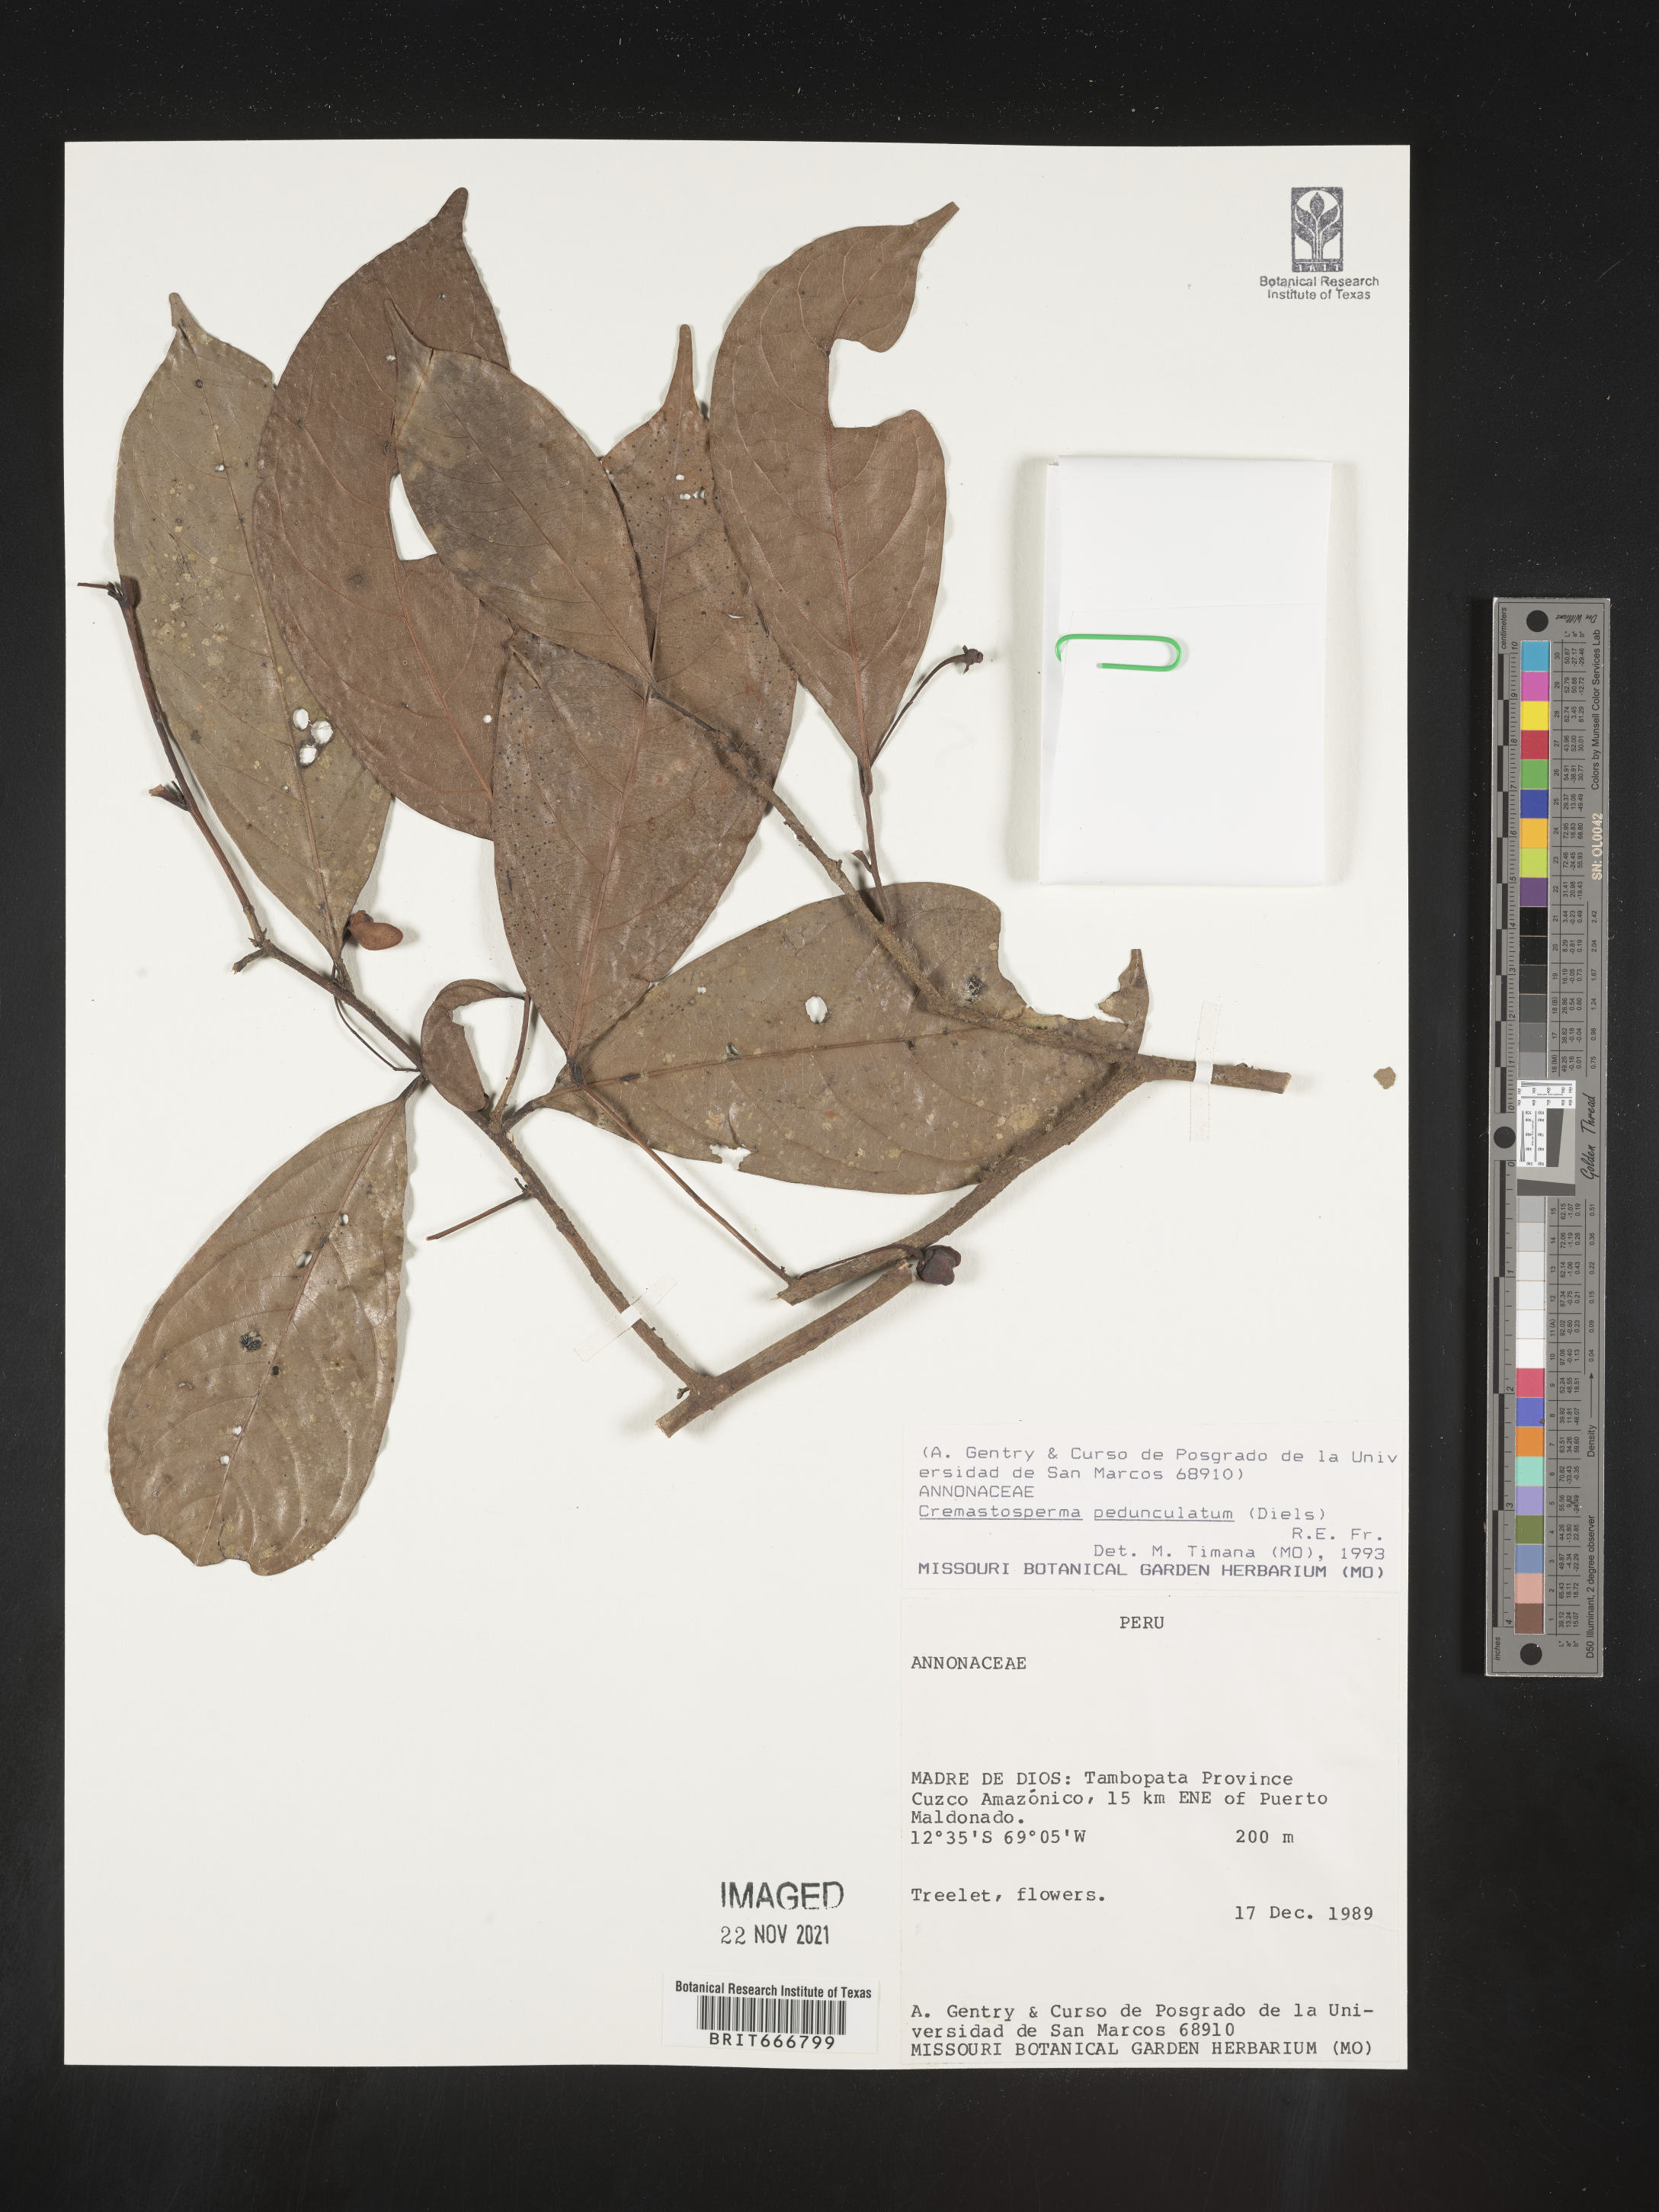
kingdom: Plantae
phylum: Tracheophyta
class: Magnoliopsida
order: Magnoliales
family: Annonaceae
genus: Cremastosperma
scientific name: Cremastosperma
